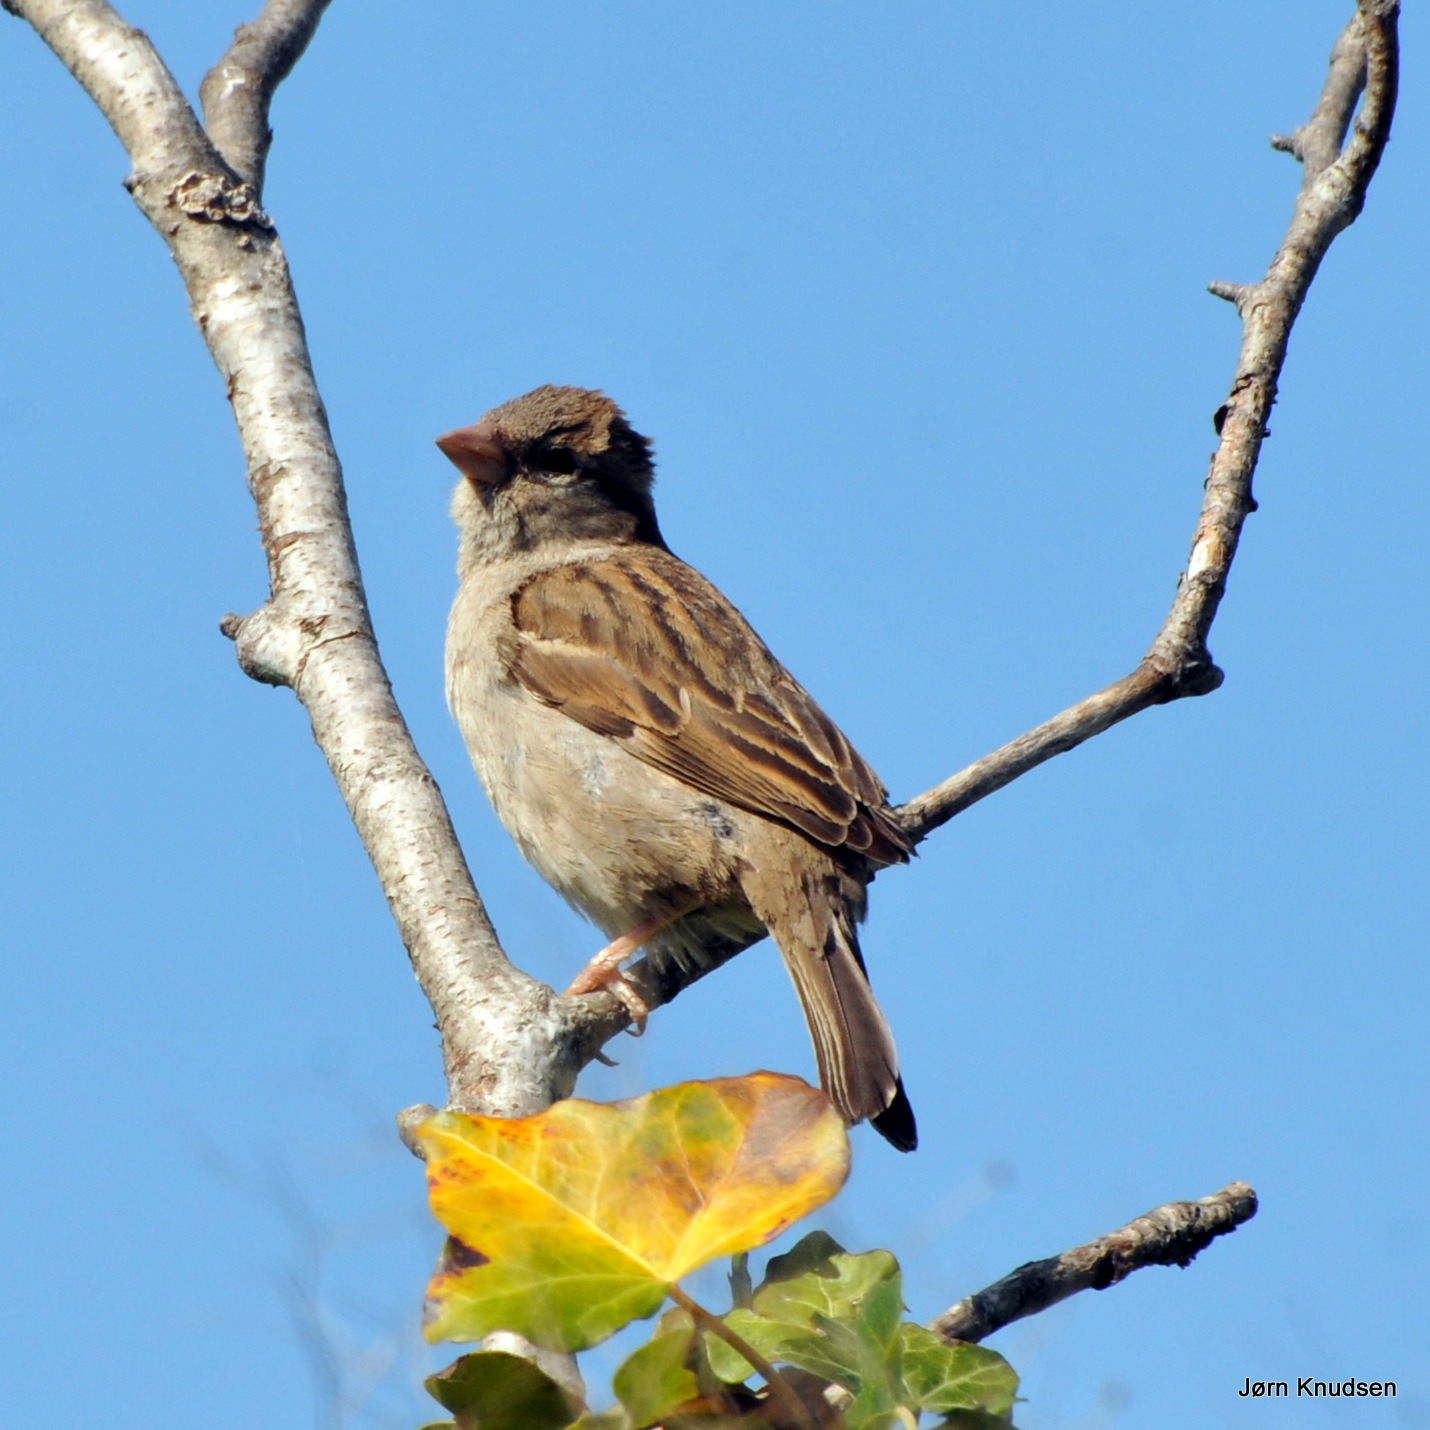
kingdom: Animalia
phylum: Chordata
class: Aves
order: Passeriformes
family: Passeridae
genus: Passer
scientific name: Passer domesticus
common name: Gråspurv
